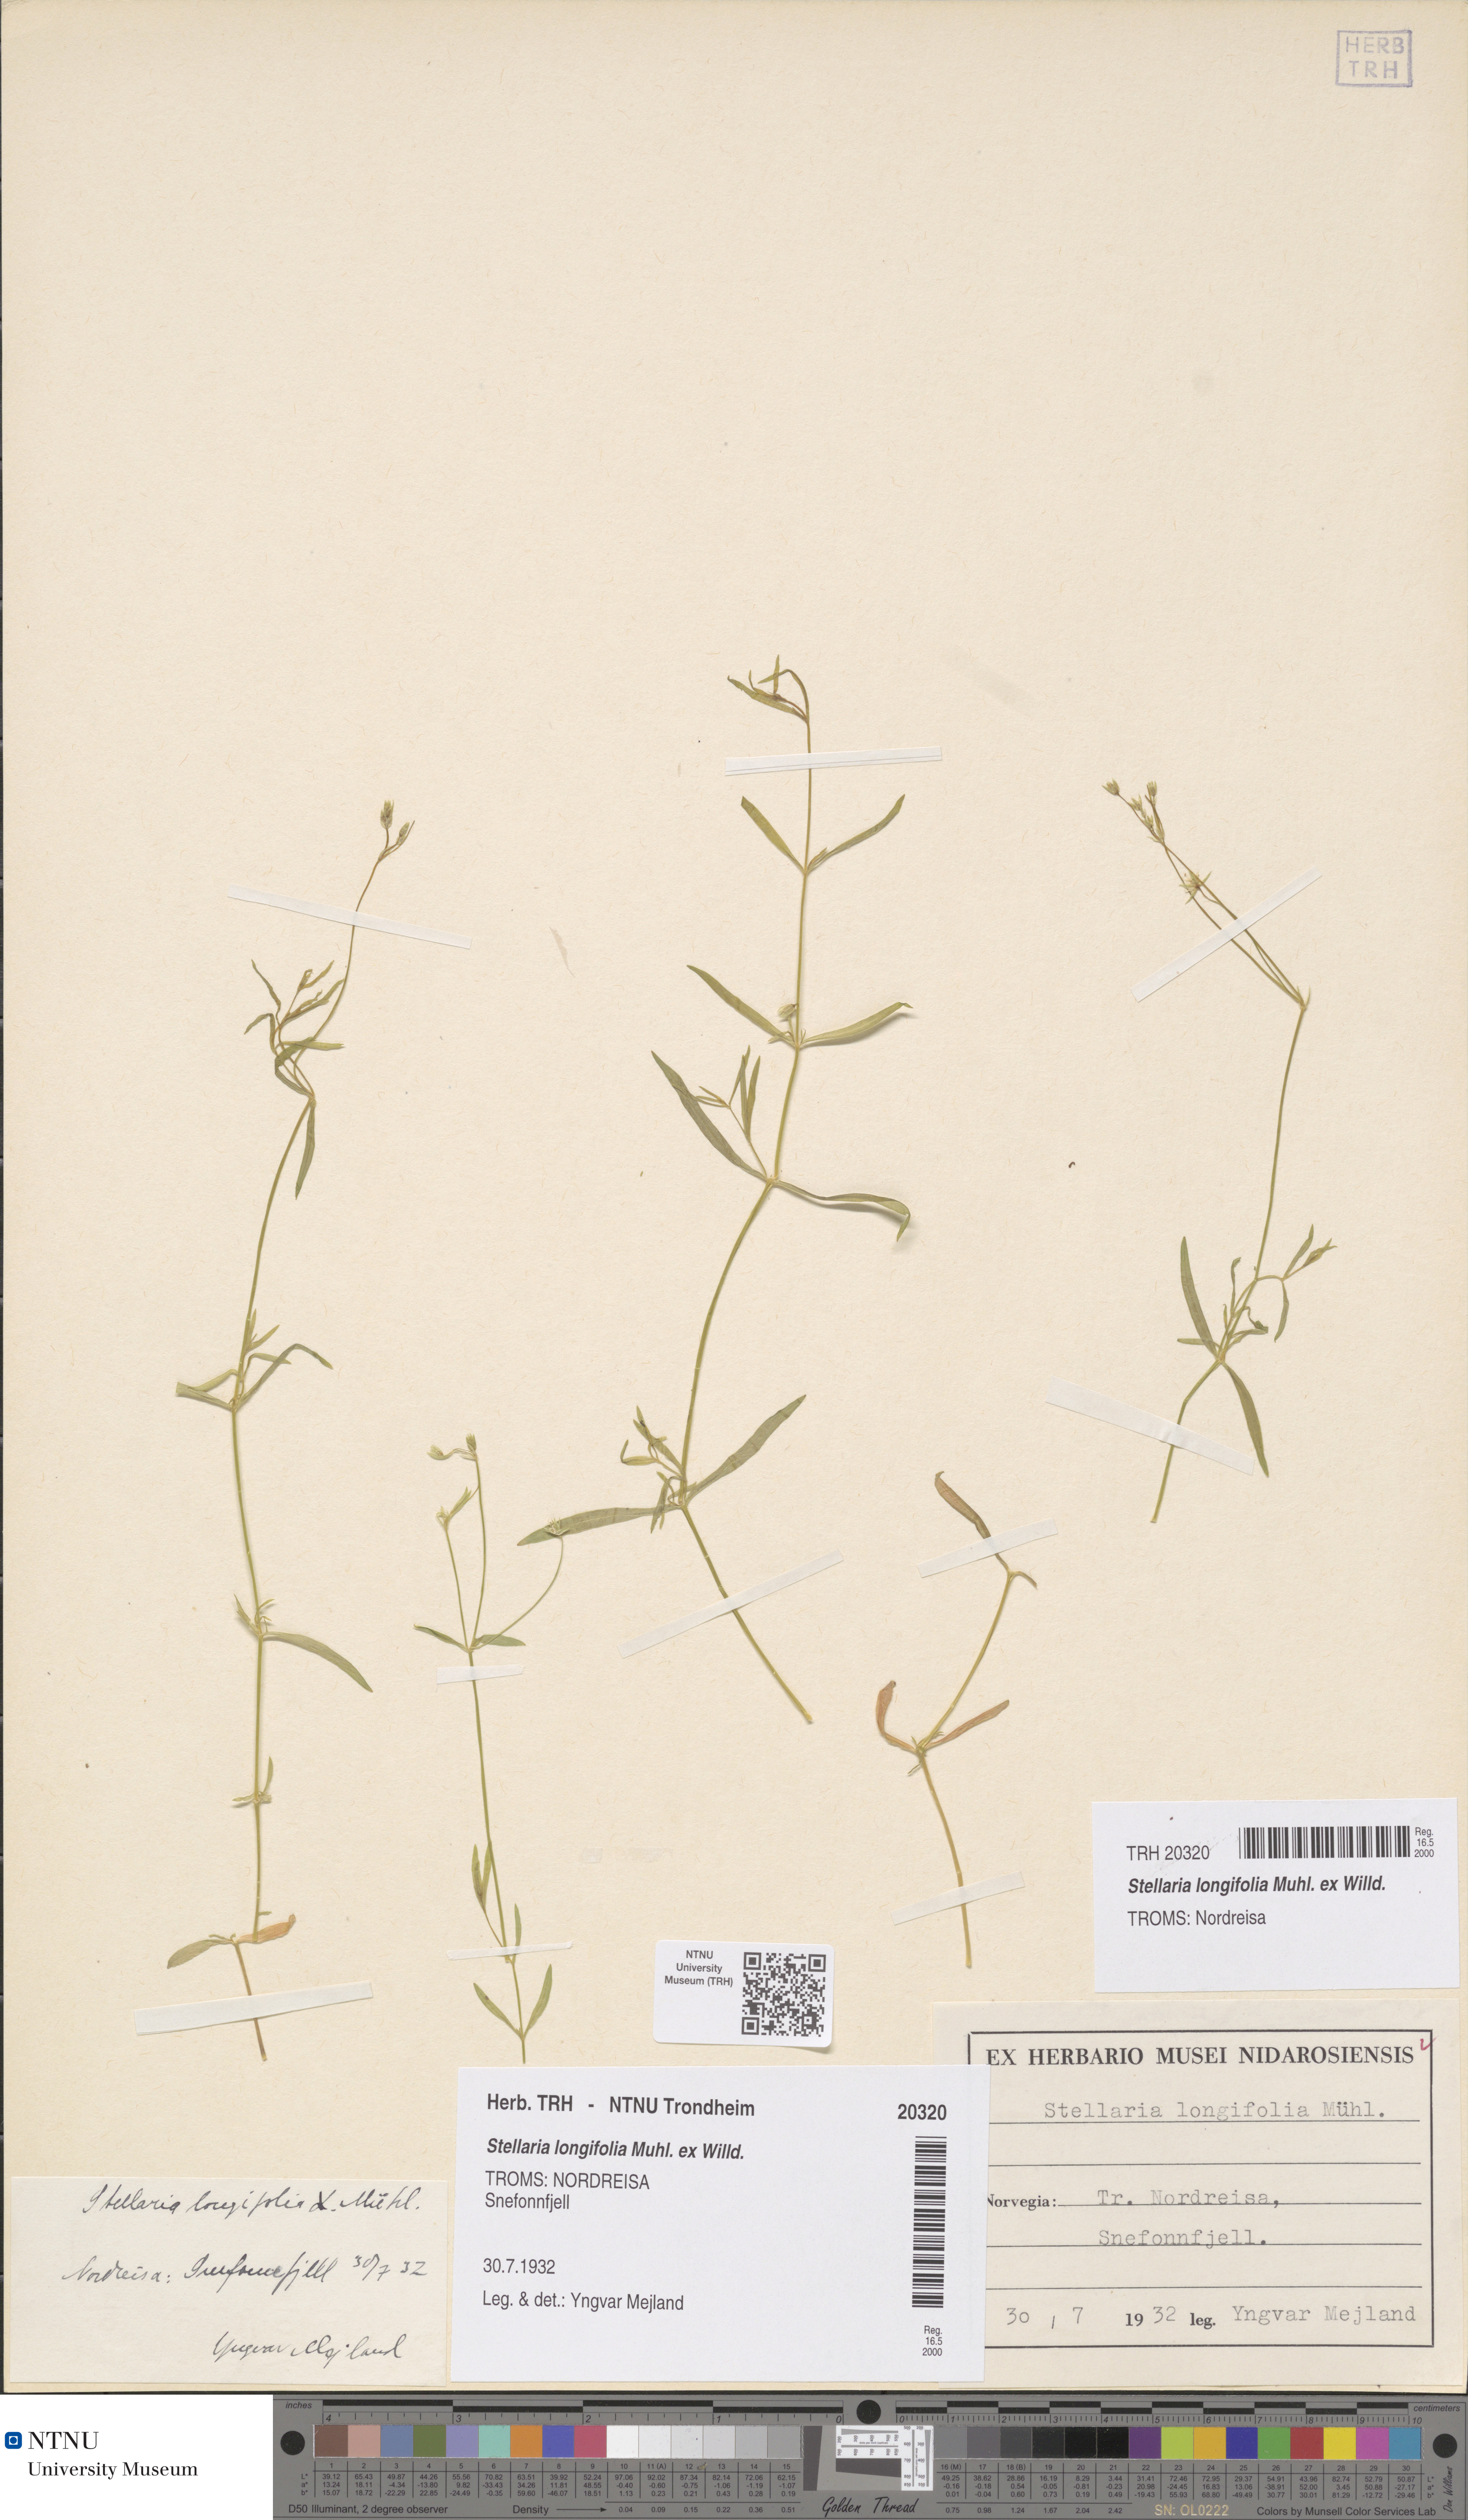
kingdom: Plantae
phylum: Tracheophyta
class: Magnoliopsida
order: Caryophyllales
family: Caryophyllaceae
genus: Stellaria
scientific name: Stellaria longifolia
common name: Long-leaved chickweed
